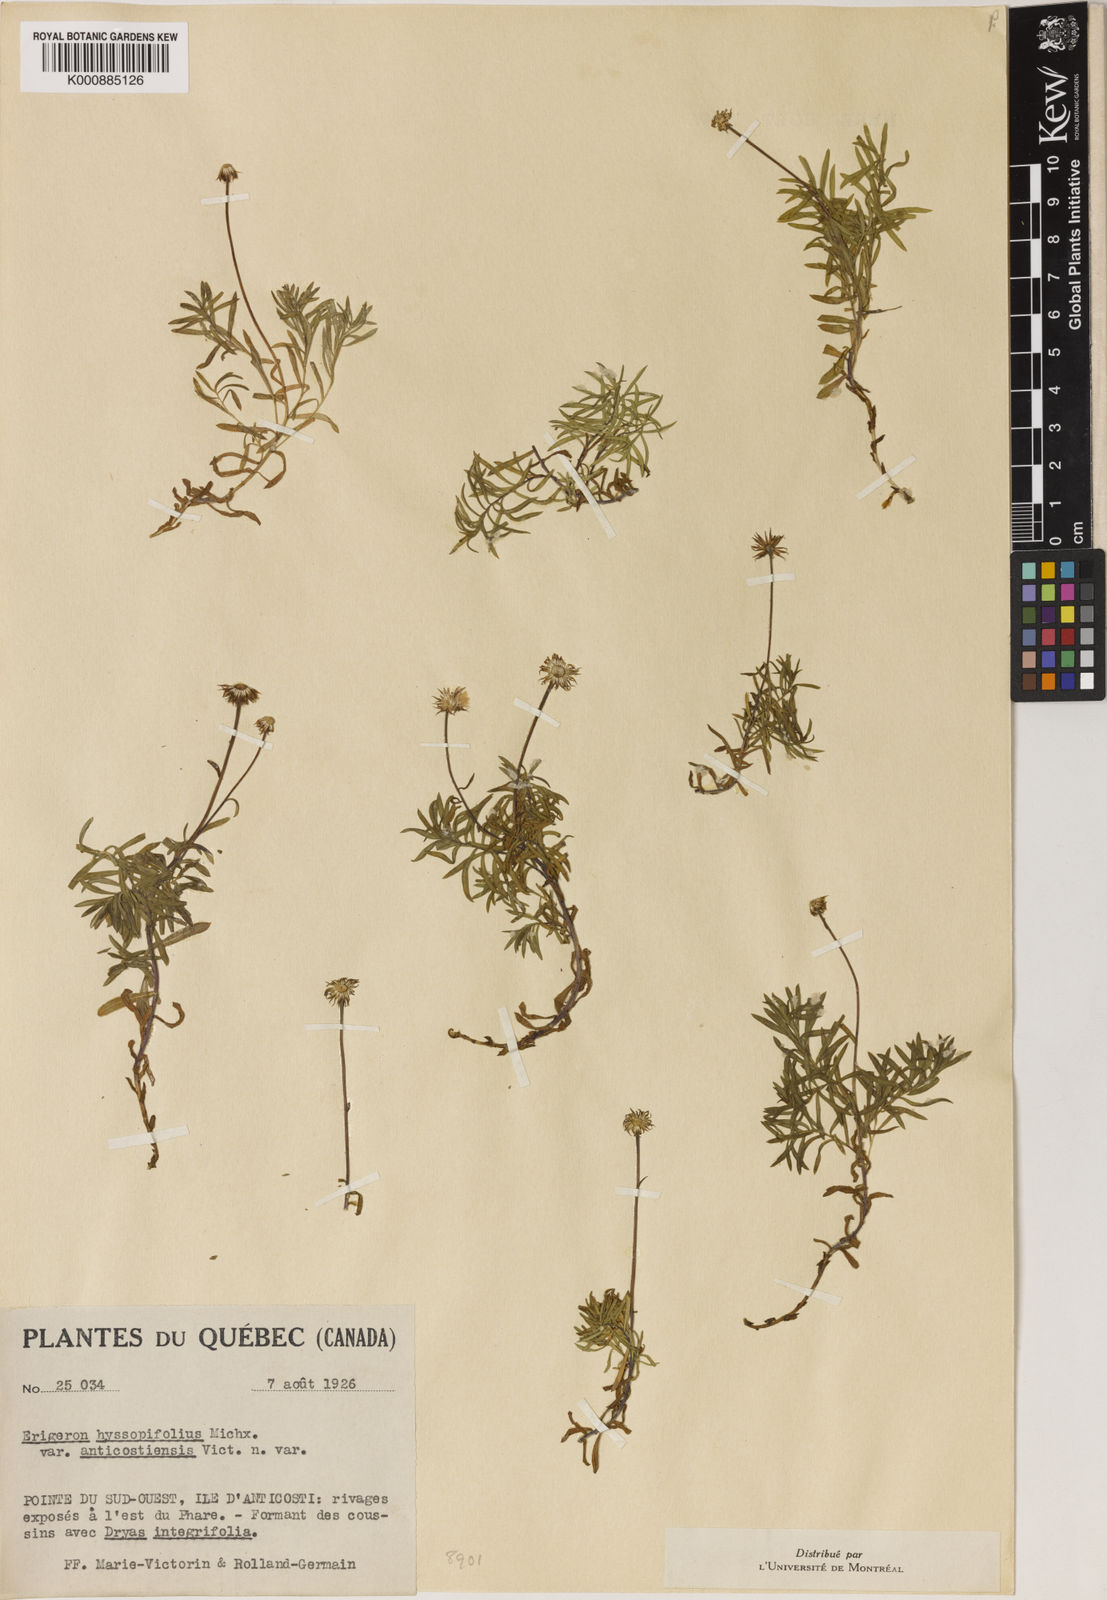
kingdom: Plantae
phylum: Tracheophyta
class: Magnoliopsida
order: Asterales
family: Asteraceae
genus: Erigeron
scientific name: Erigeron hyssopifolius
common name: Daisy fleabane
